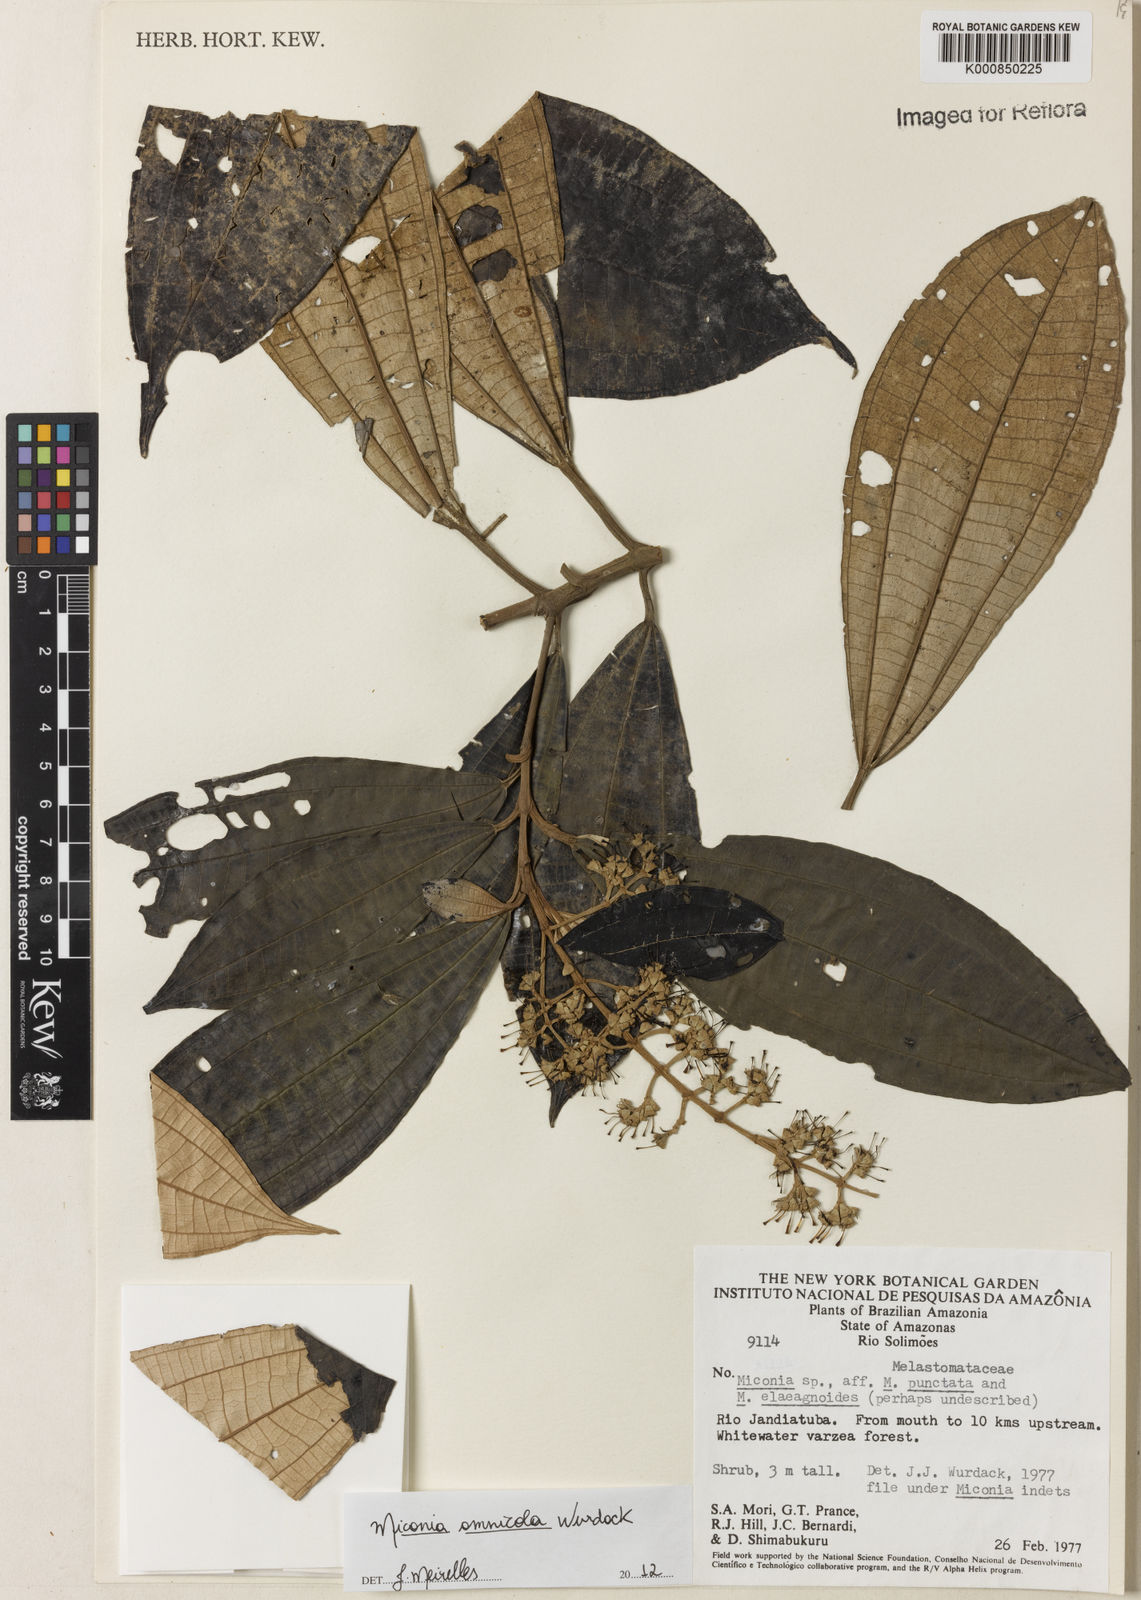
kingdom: Plantae
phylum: Tracheophyta
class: Magnoliopsida
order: Myrtales
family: Melastomataceae
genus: Miconia
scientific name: Miconia amnicola
